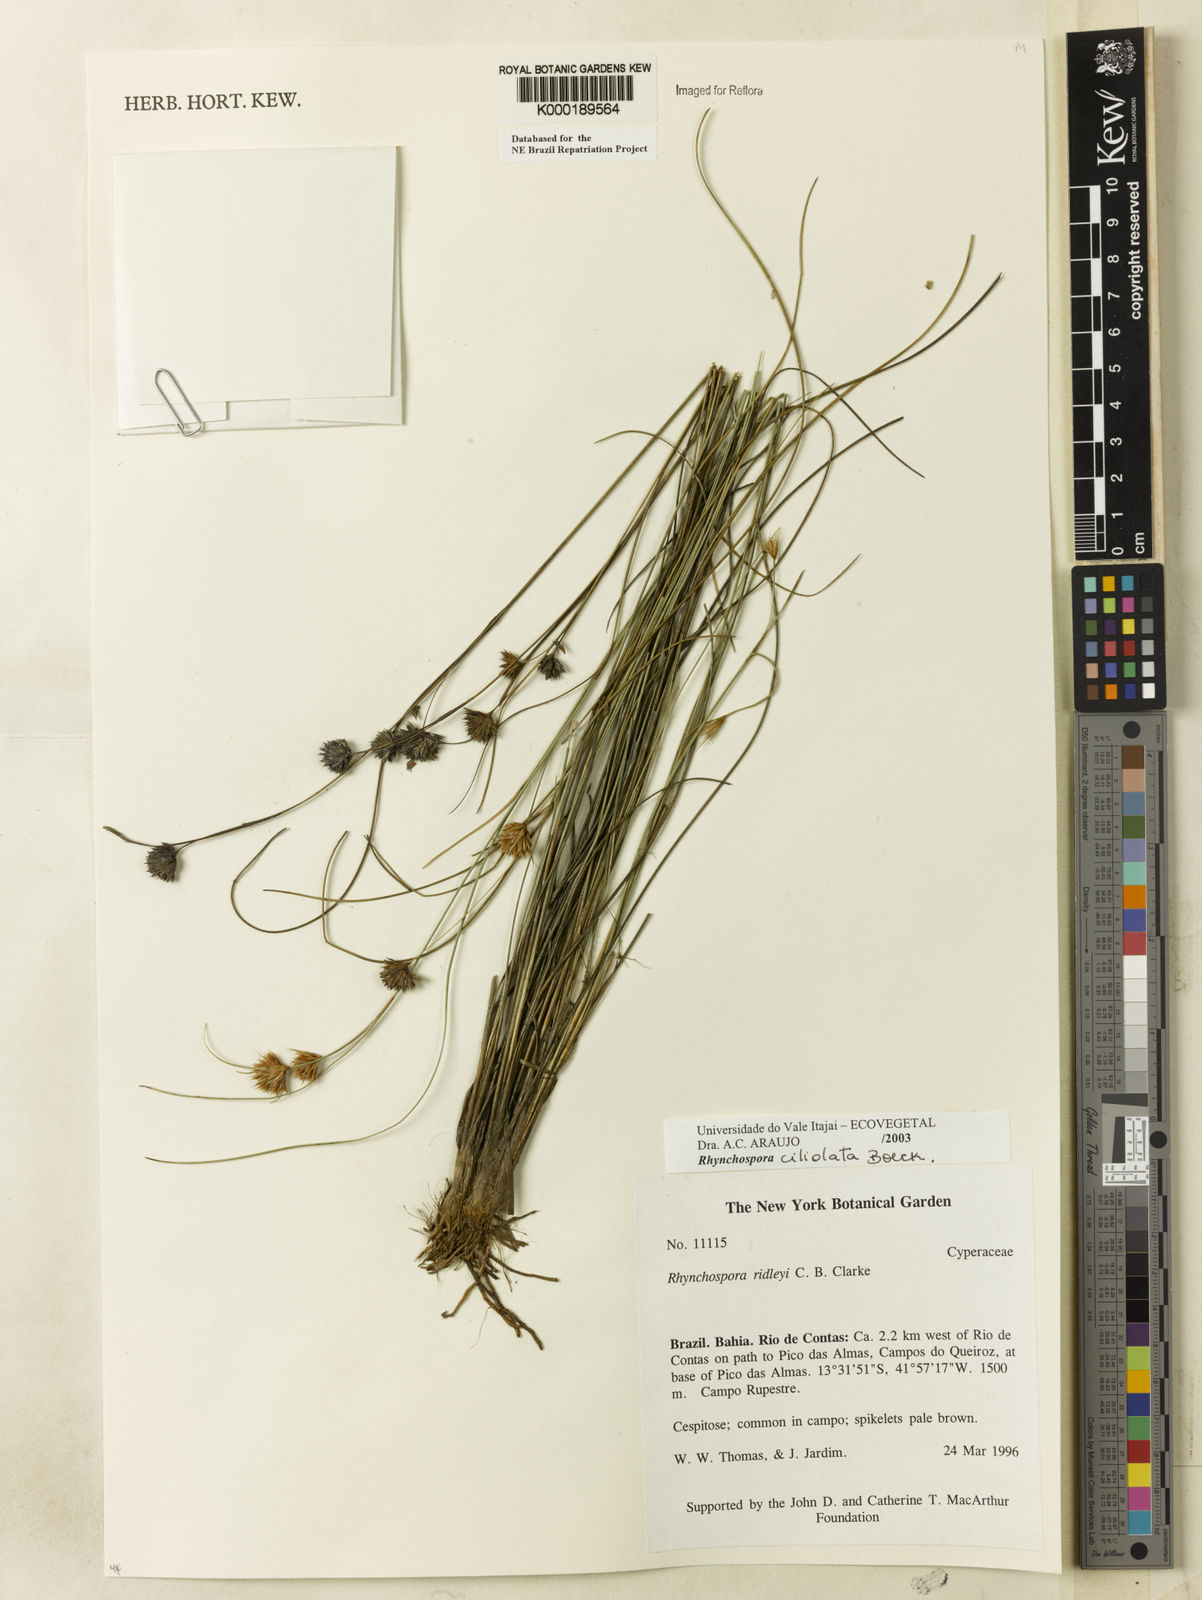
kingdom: Plantae
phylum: Tracheophyta
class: Liliopsida
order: Poales
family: Cyperaceae
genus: Rhynchospora
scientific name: Rhynchospora ciliolata
